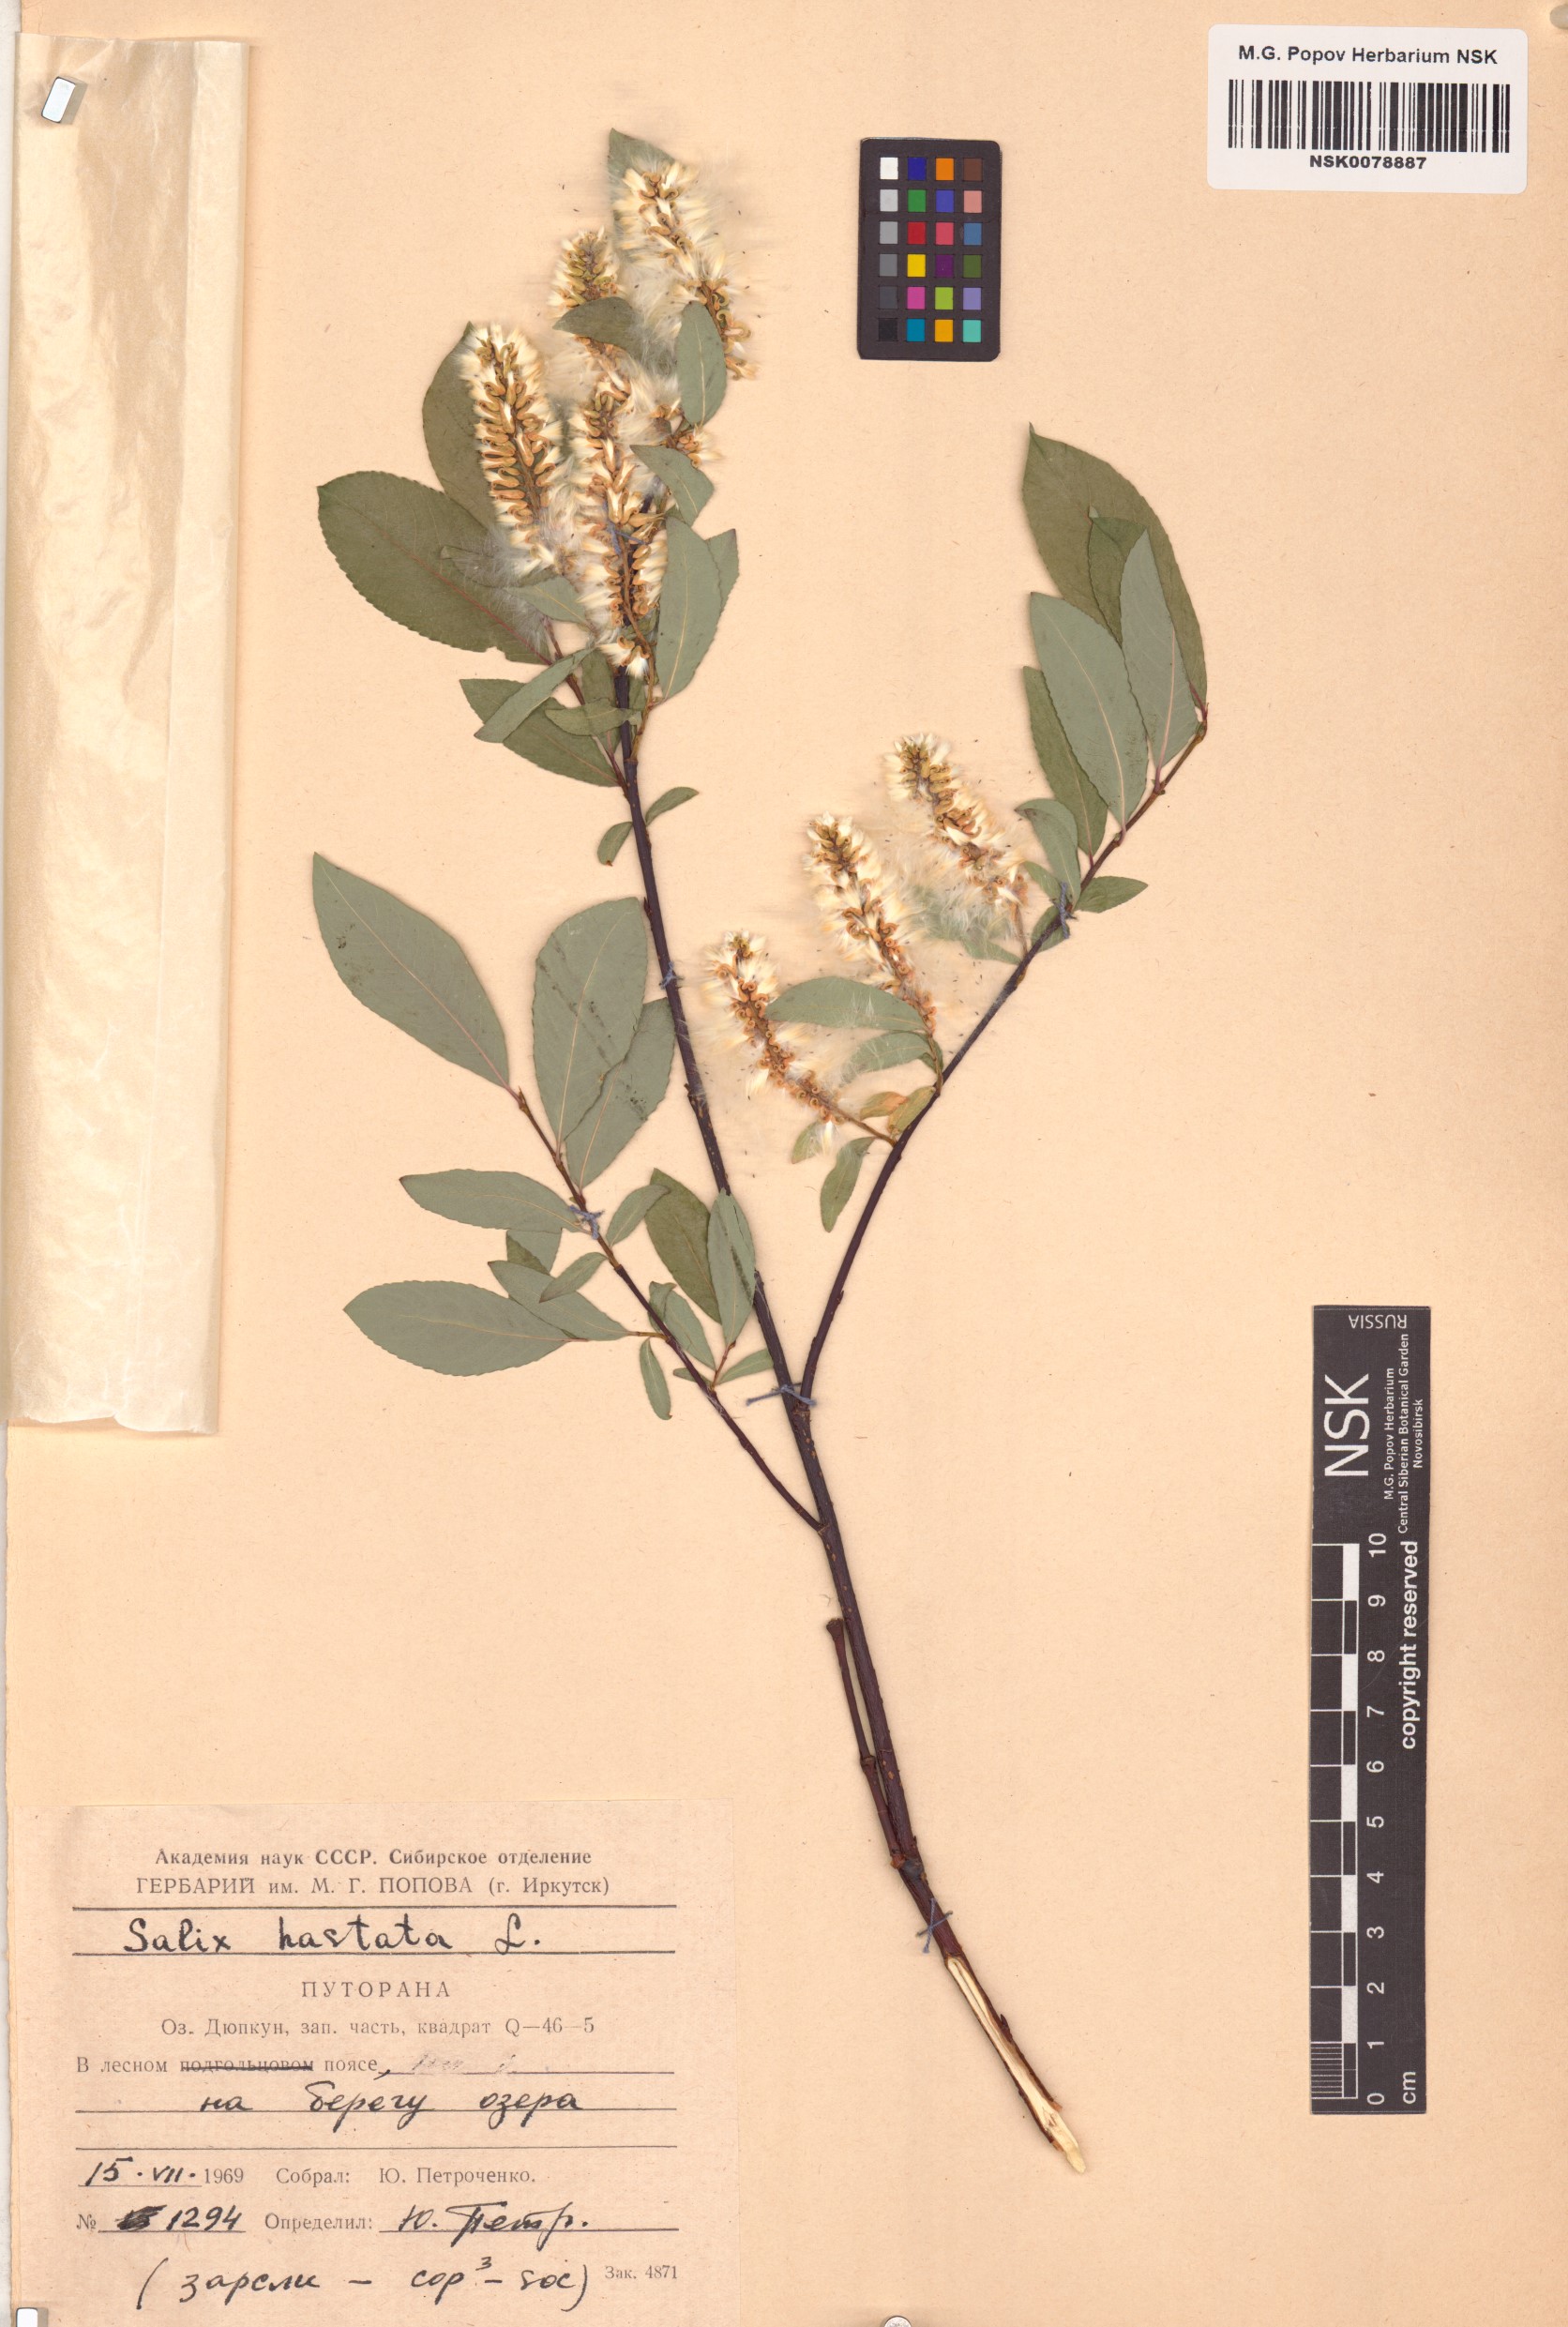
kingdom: Plantae
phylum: Tracheophyta
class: Magnoliopsida
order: Malpighiales
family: Salicaceae
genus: Salix
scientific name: Salix hastata
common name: Halberd willow
